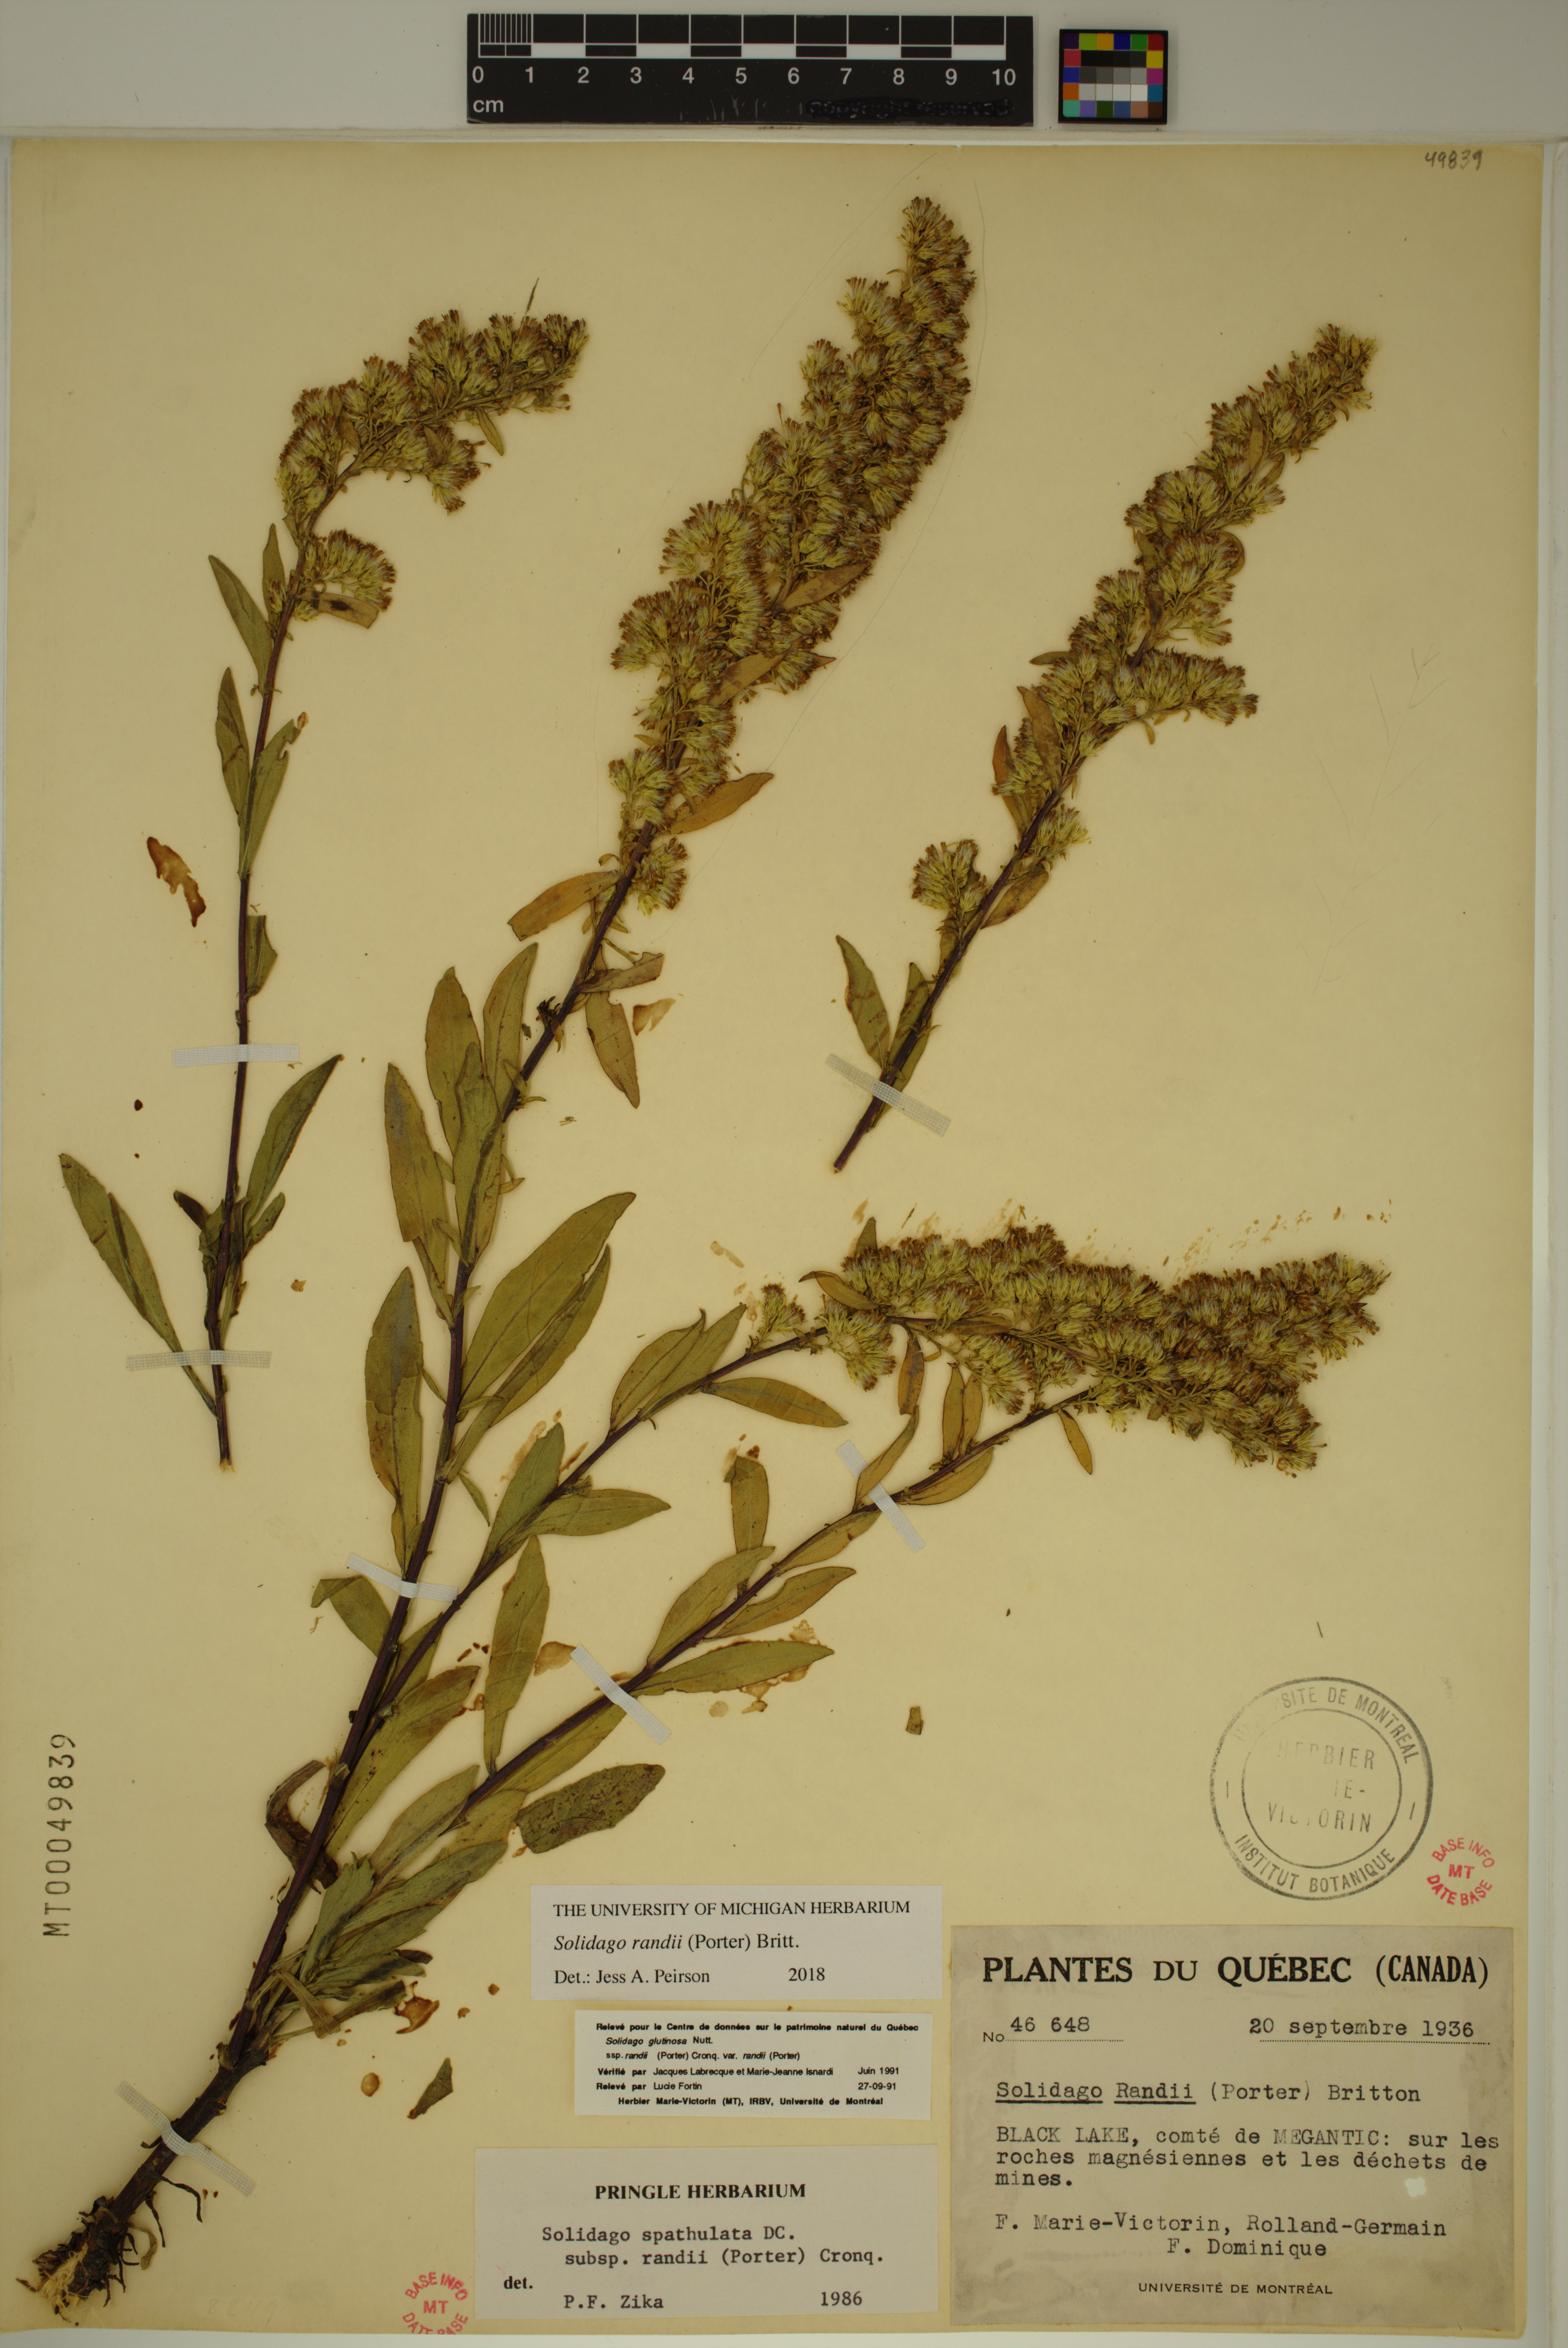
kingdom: Plantae
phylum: Tracheophyta
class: Magnoliopsida
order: Asterales
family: Asteraceae
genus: Solidago
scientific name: Solidago randii
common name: Rand's goldenrod
